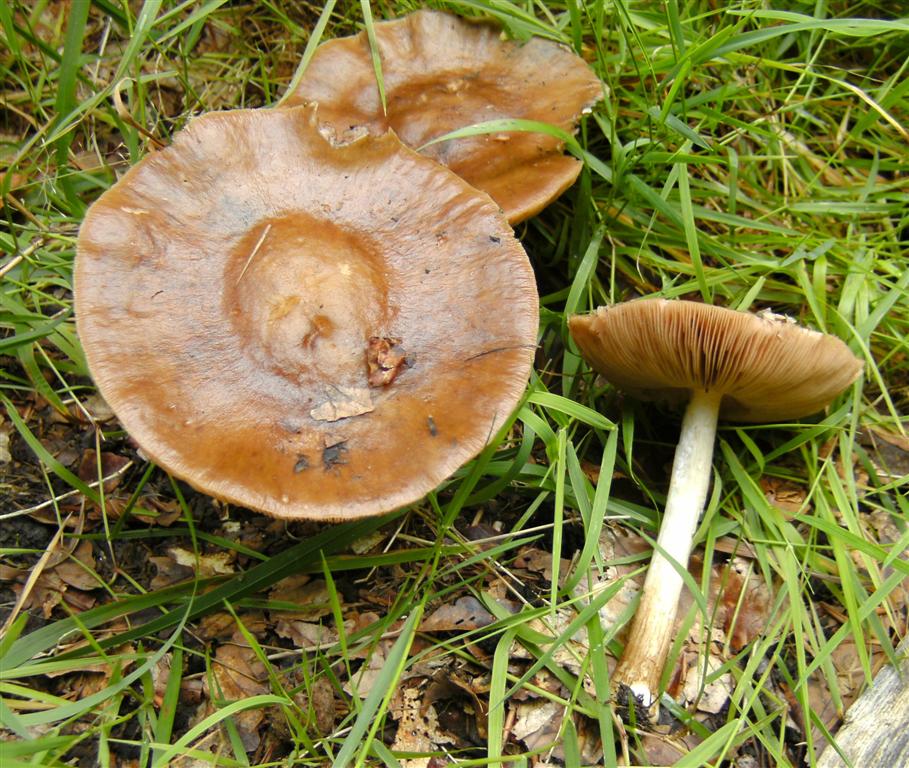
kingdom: Fungi
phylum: Basidiomycota
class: Agaricomycetes
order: Agaricales
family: Pluteaceae
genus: Pluteus
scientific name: Pluteus cervinus
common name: sodfarvet skærmhat
